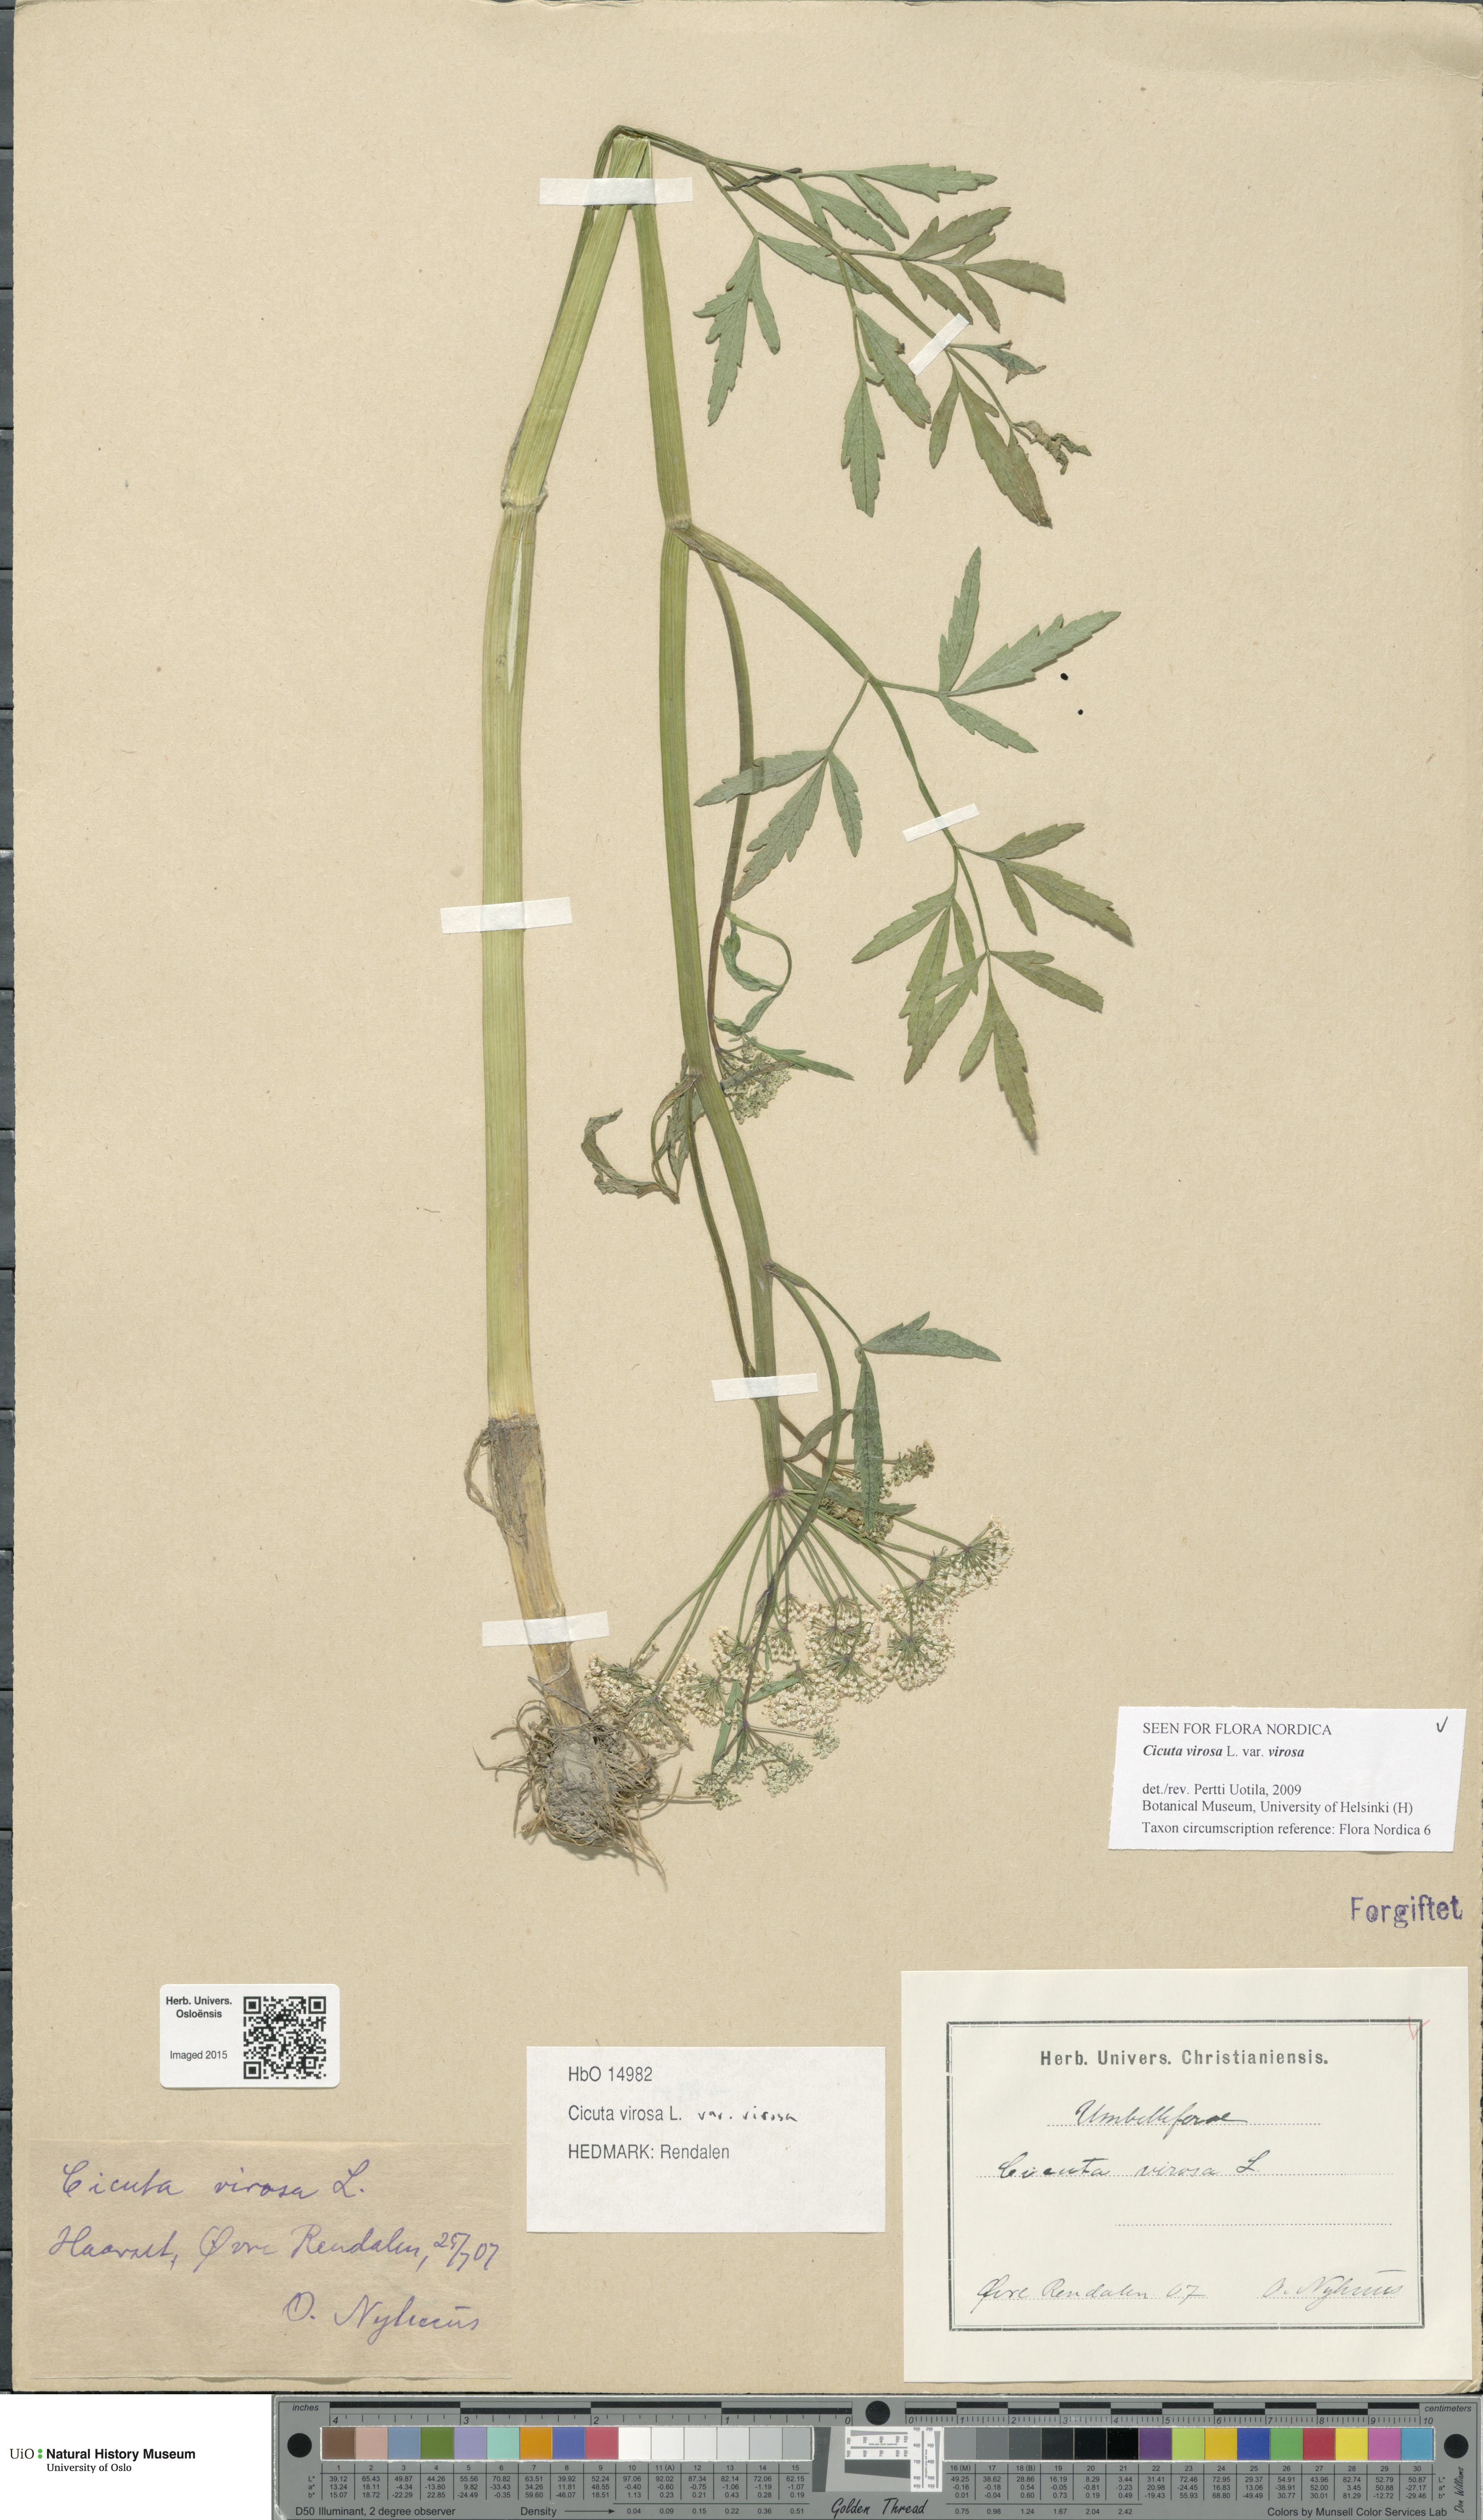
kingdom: Plantae
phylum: Tracheophyta
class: Magnoliopsida
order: Apiales
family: Apiaceae
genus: Cicuta
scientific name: Cicuta virosa
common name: Cowbane
